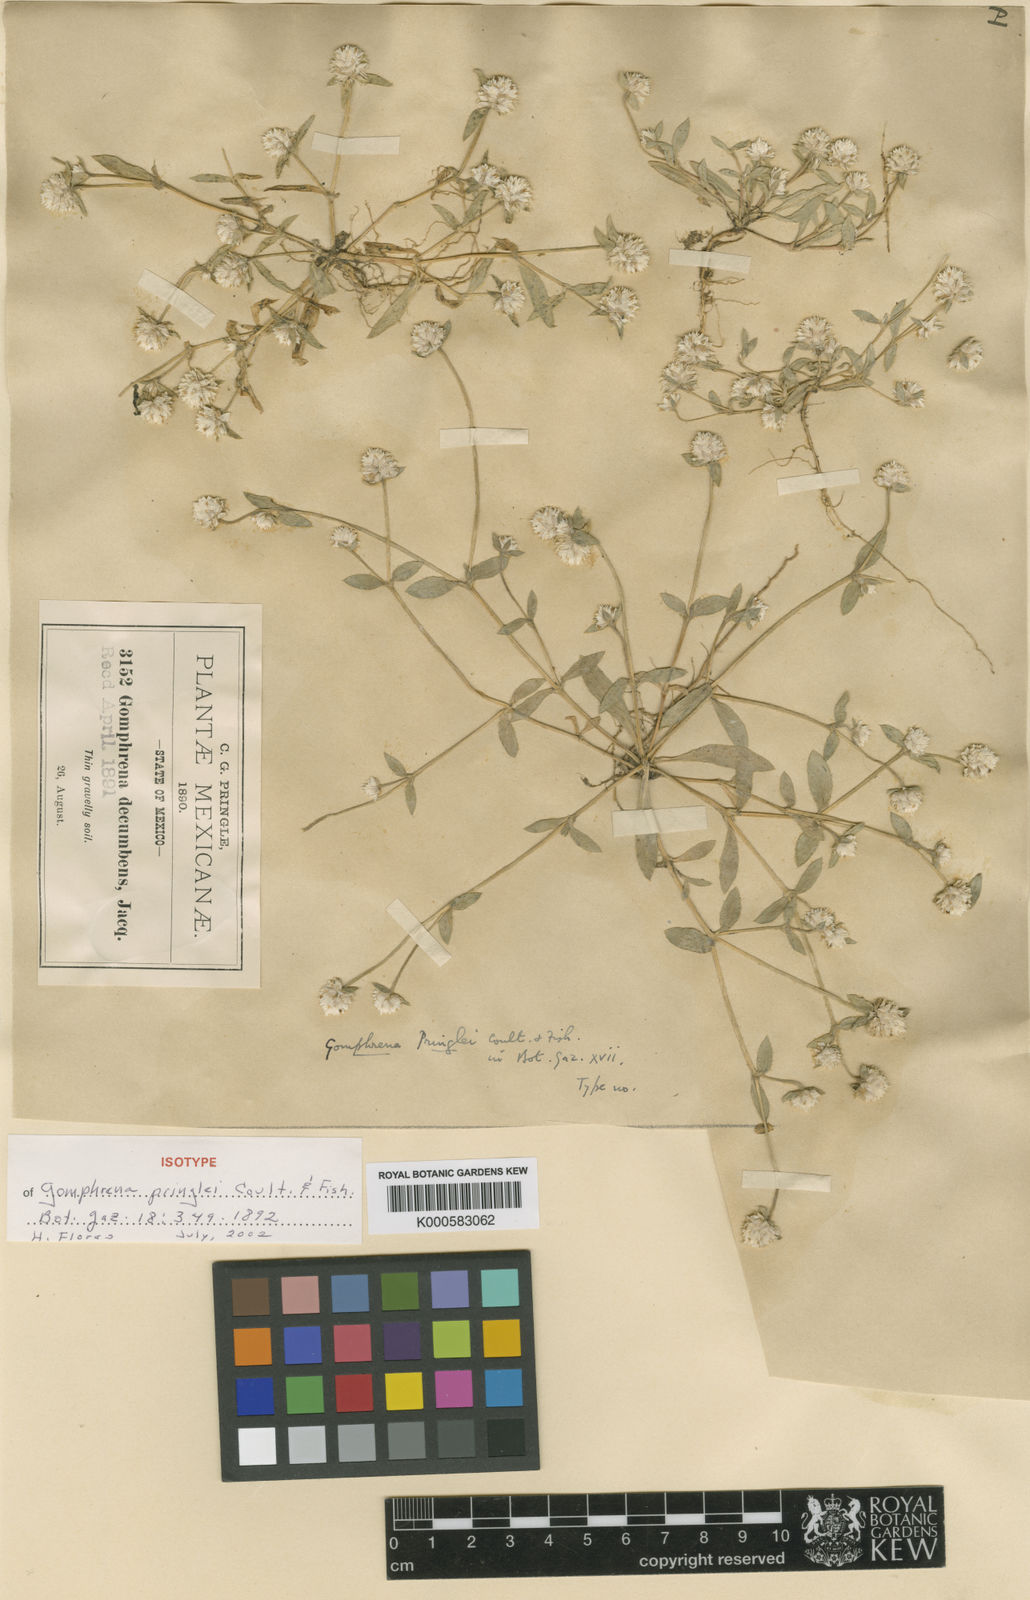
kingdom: Plantae
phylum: Tracheophyta
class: Magnoliopsida
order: Caryophyllales
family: Amaranthaceae
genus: Gomphrena
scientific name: Gomphrena pringlei
